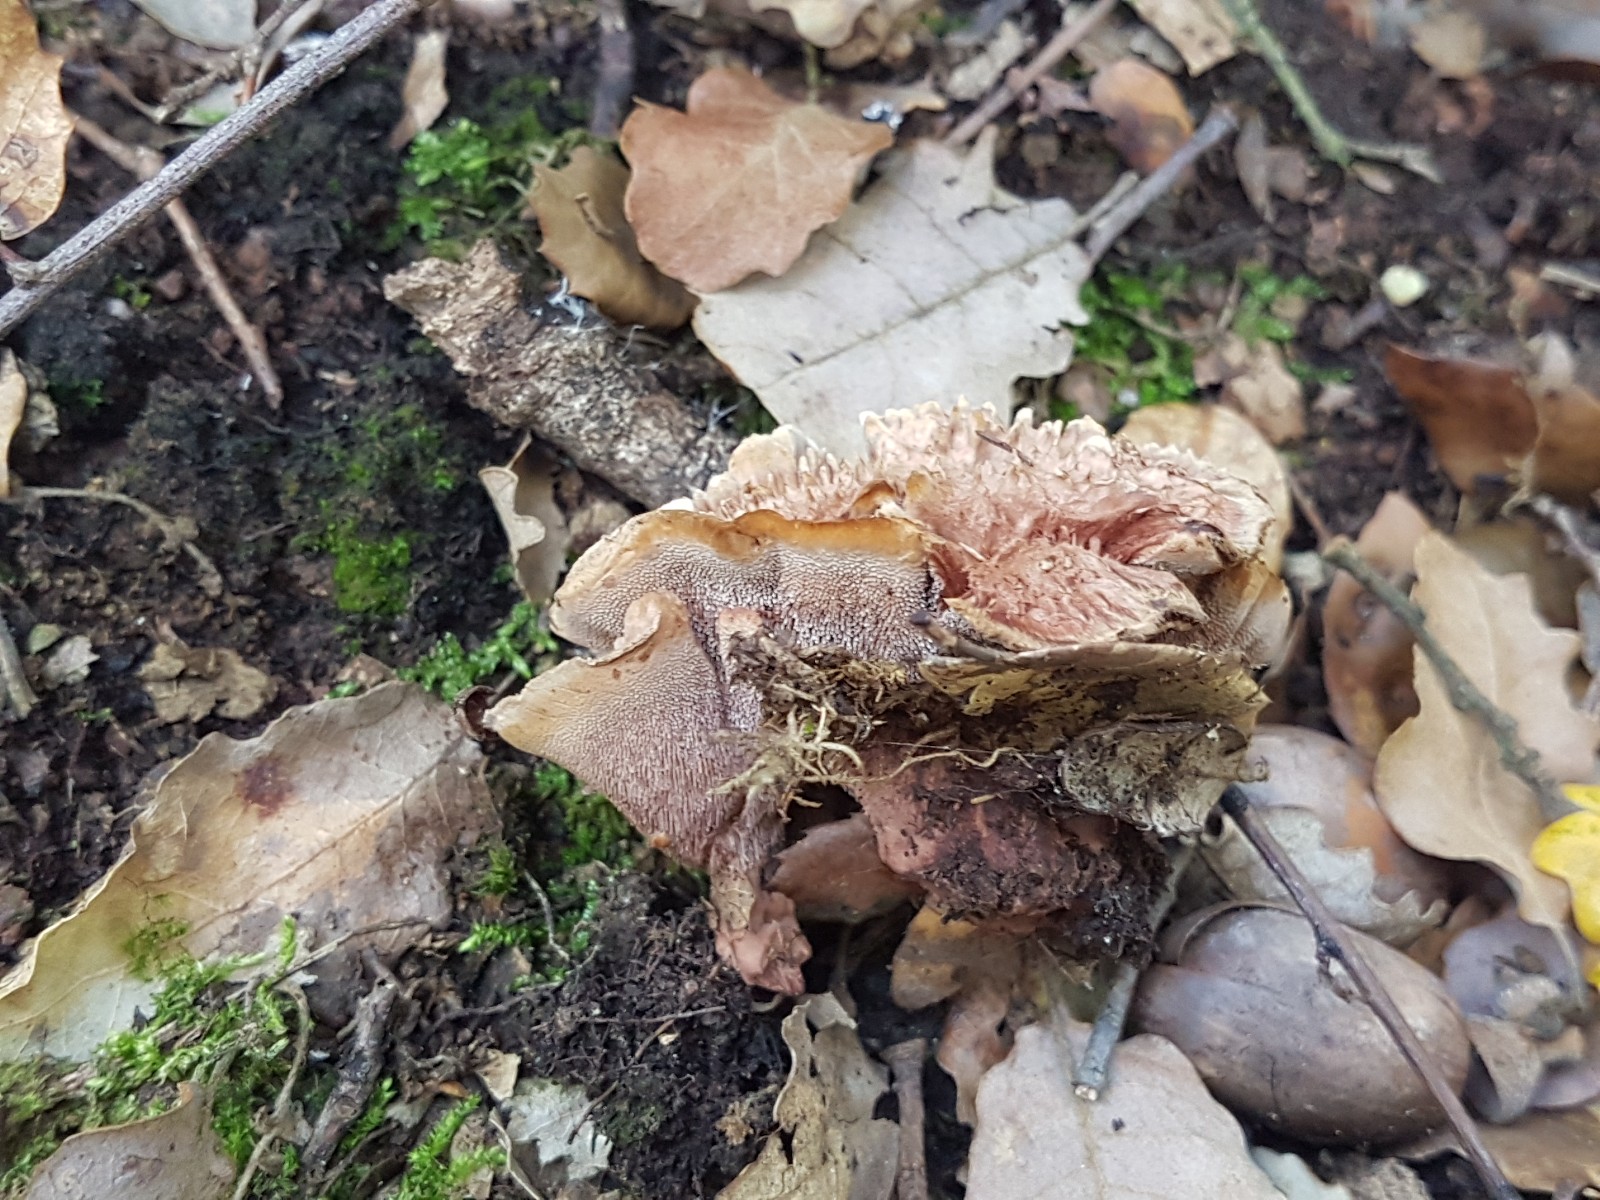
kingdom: Fungi
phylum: Basidiomycota
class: Agaricomycetes
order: Hymenochaetales
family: Hymenochaetaceae
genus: Coltricia
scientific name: Coltricia
